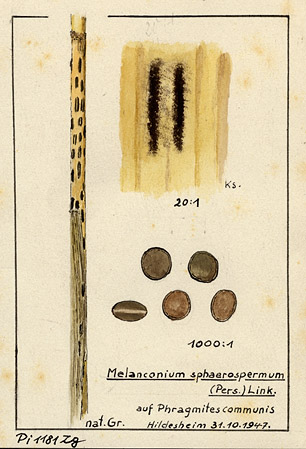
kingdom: Fungi
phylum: Ascomycota
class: Sordariomycetes
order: Xylariales
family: Apiosporaceae
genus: Apiospora
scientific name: Apiospora sphaerosperma
